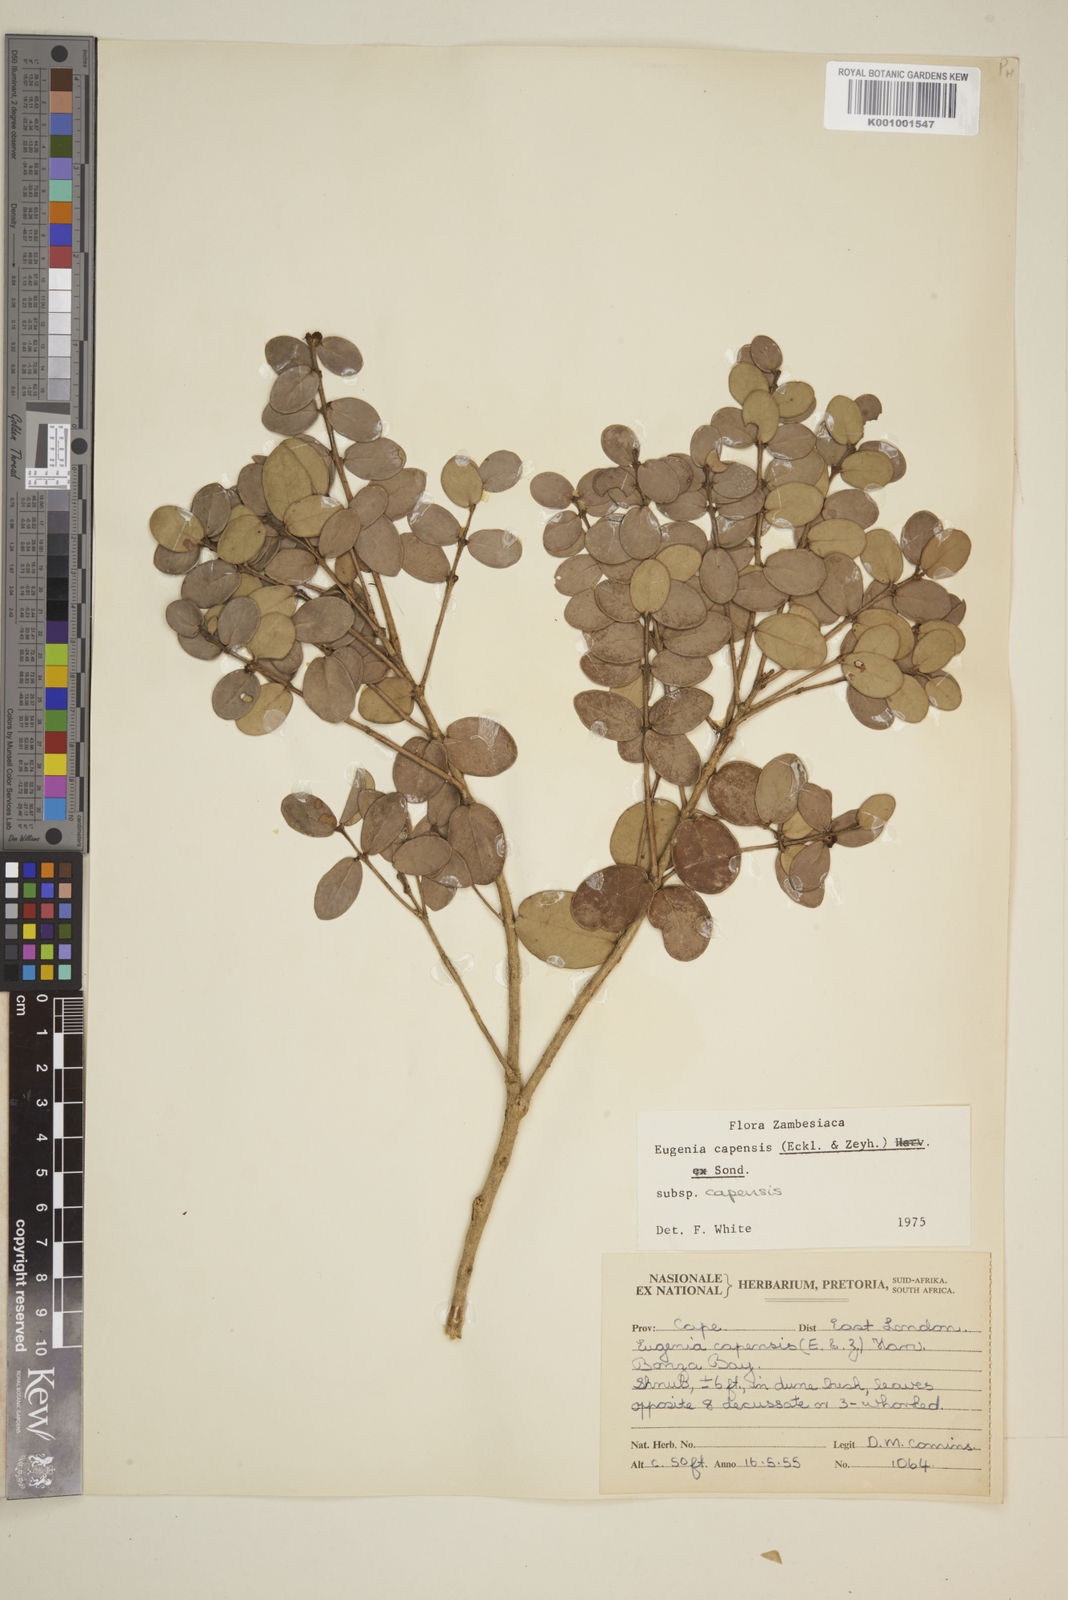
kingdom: Plantae
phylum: Tracheophyta
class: Magnoliopsida
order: Myrtales
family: Myrtaceae
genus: Eugenia
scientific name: Eugenia capensis
